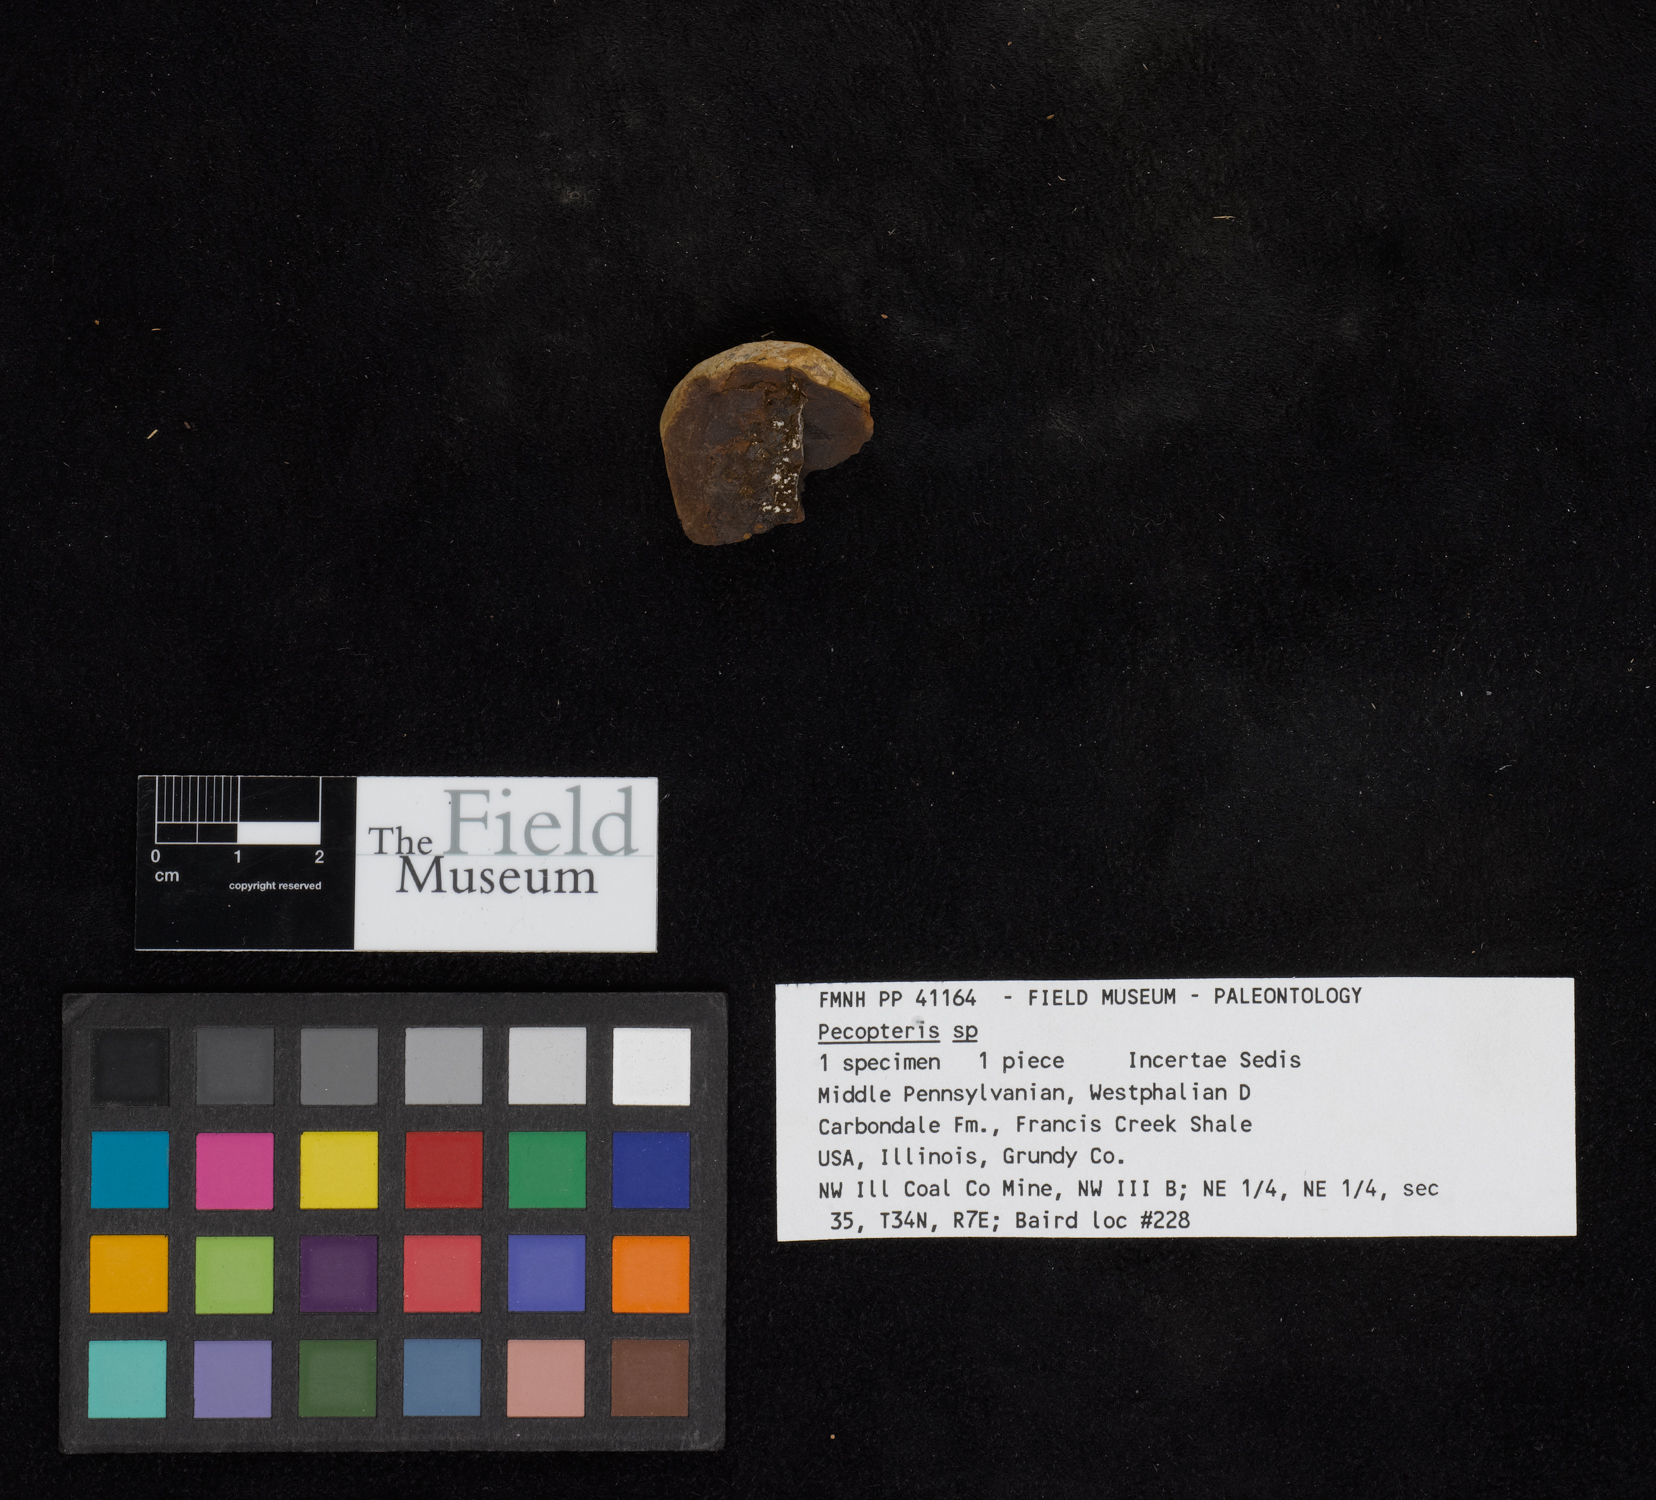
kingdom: Plantae
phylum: Tracheophyta
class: Polypodiopsida
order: Marattiales
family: Asterothecaceae
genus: Pecopteris
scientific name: Pecopteris
